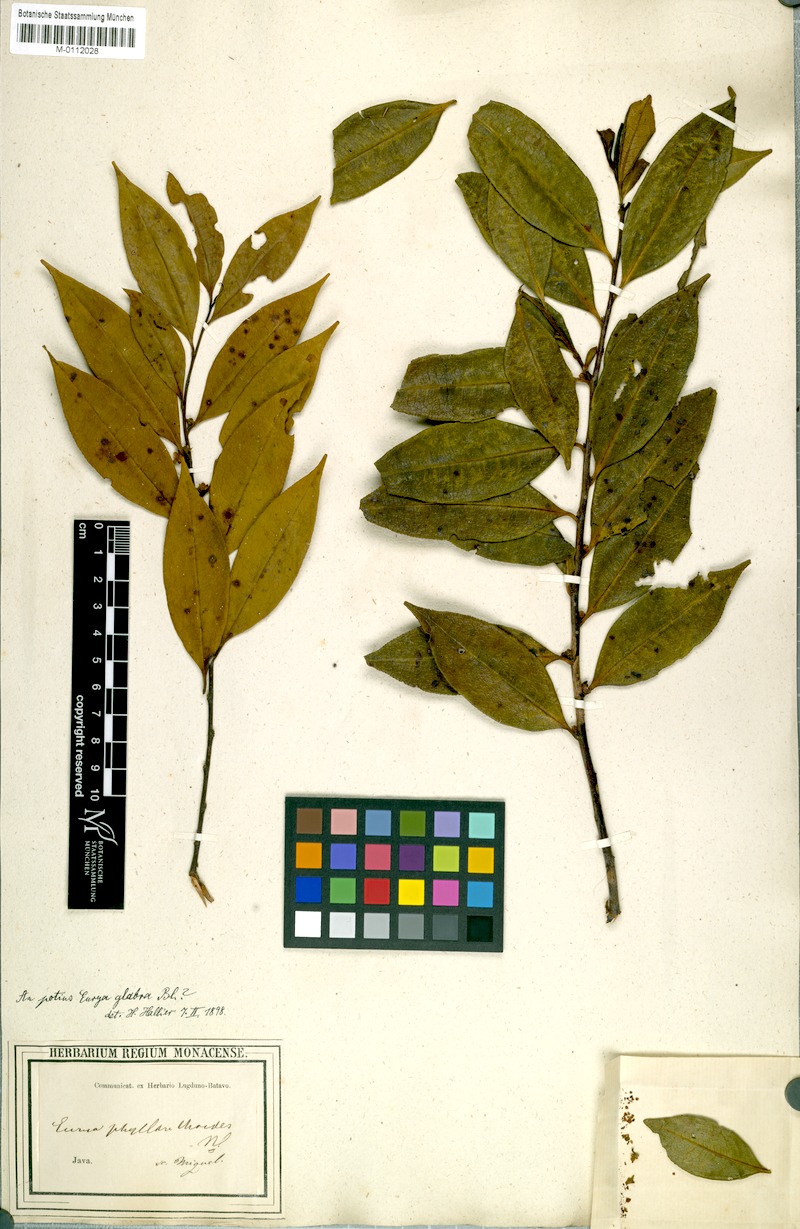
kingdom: Plantae
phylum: Tracheophyta
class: Magnoliopsida
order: Ericales
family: Pentaphylacaceae
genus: Eurya
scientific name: Eurya acuminata
